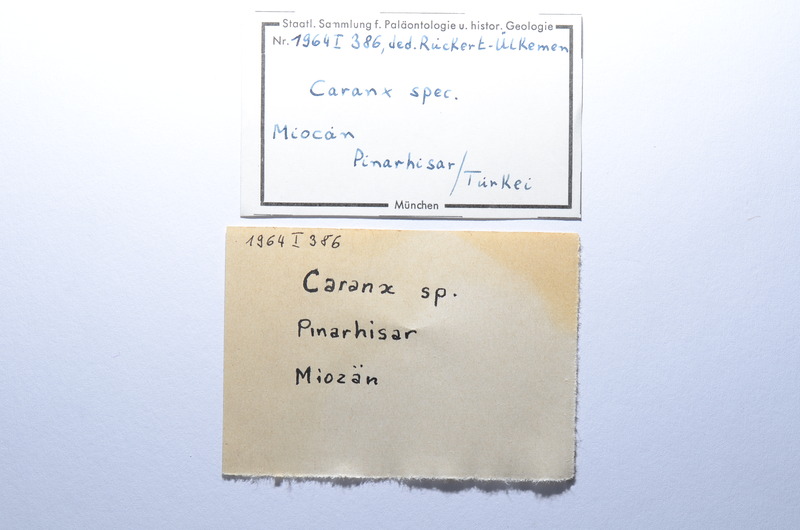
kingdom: Animalia
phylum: Chordata
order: Perciformes
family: Carangidae
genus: Caranx
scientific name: Caranx
